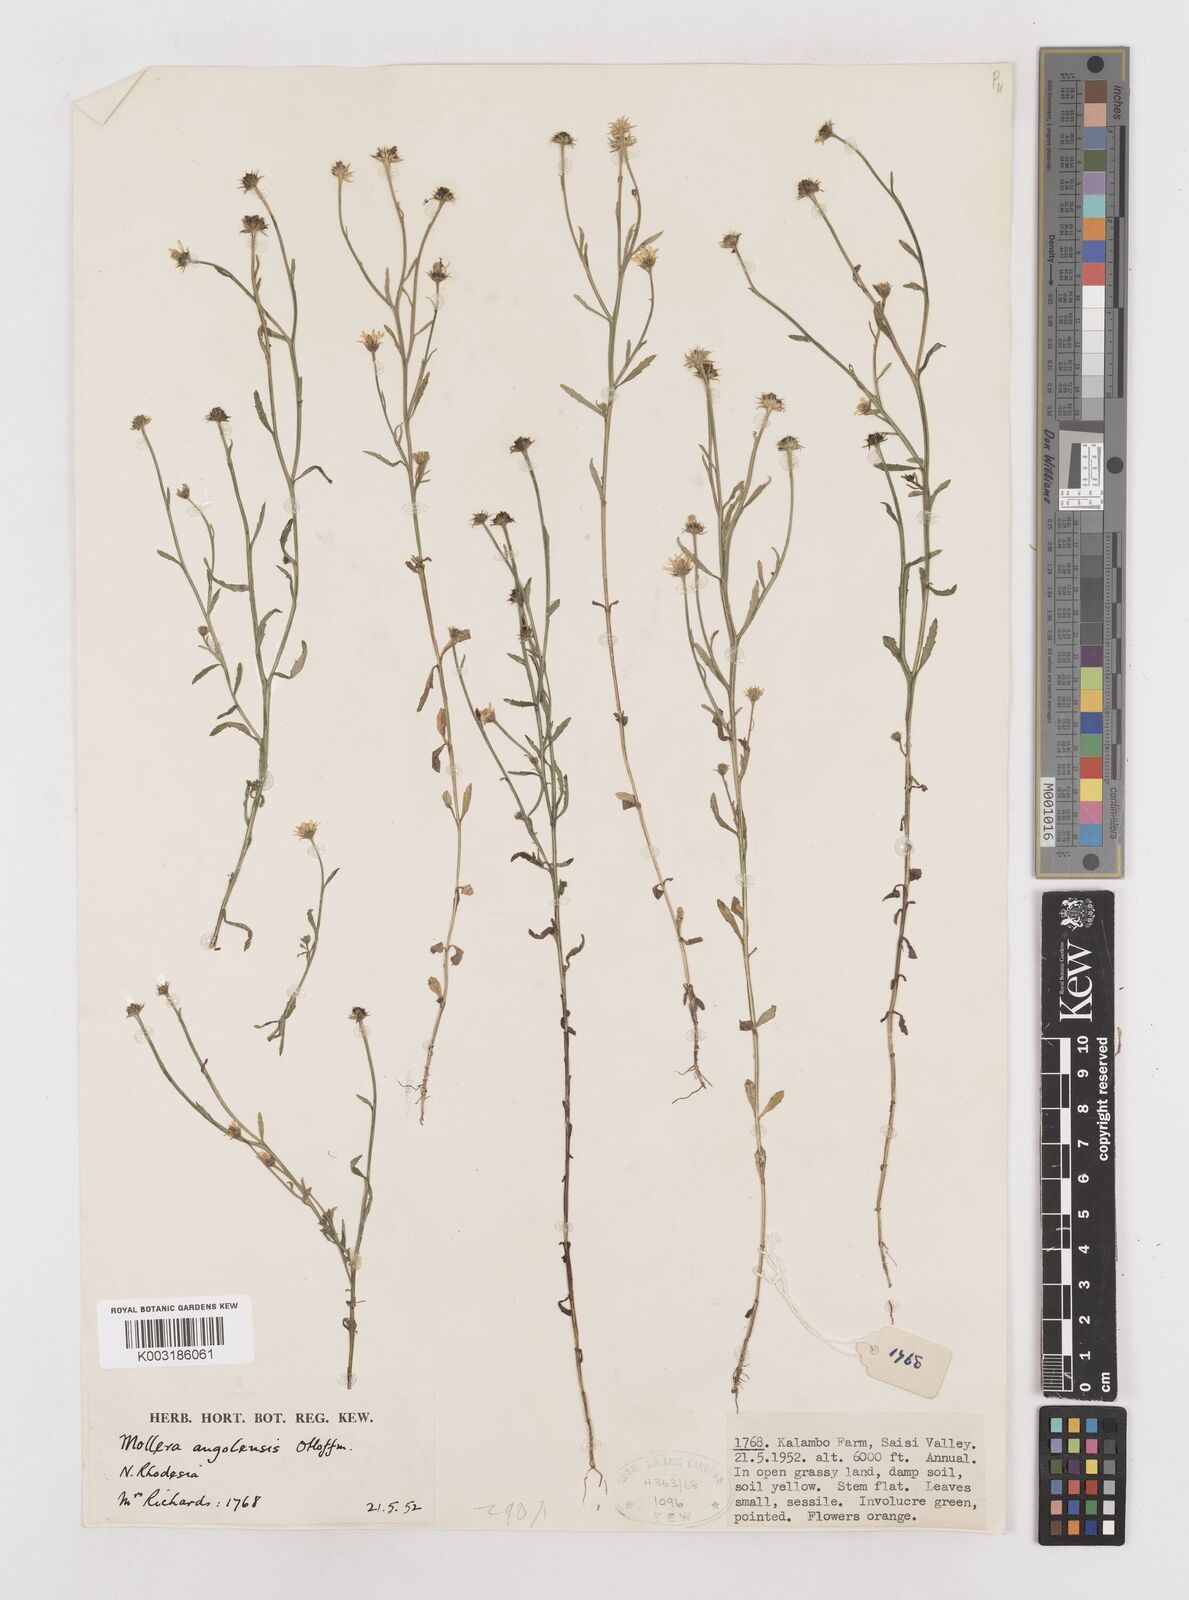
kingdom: Plantae
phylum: Tracheophyta
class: Magnoliopsida
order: Asterales
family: Asteraceae
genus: Calostephane
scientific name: Calostephane angolensis
